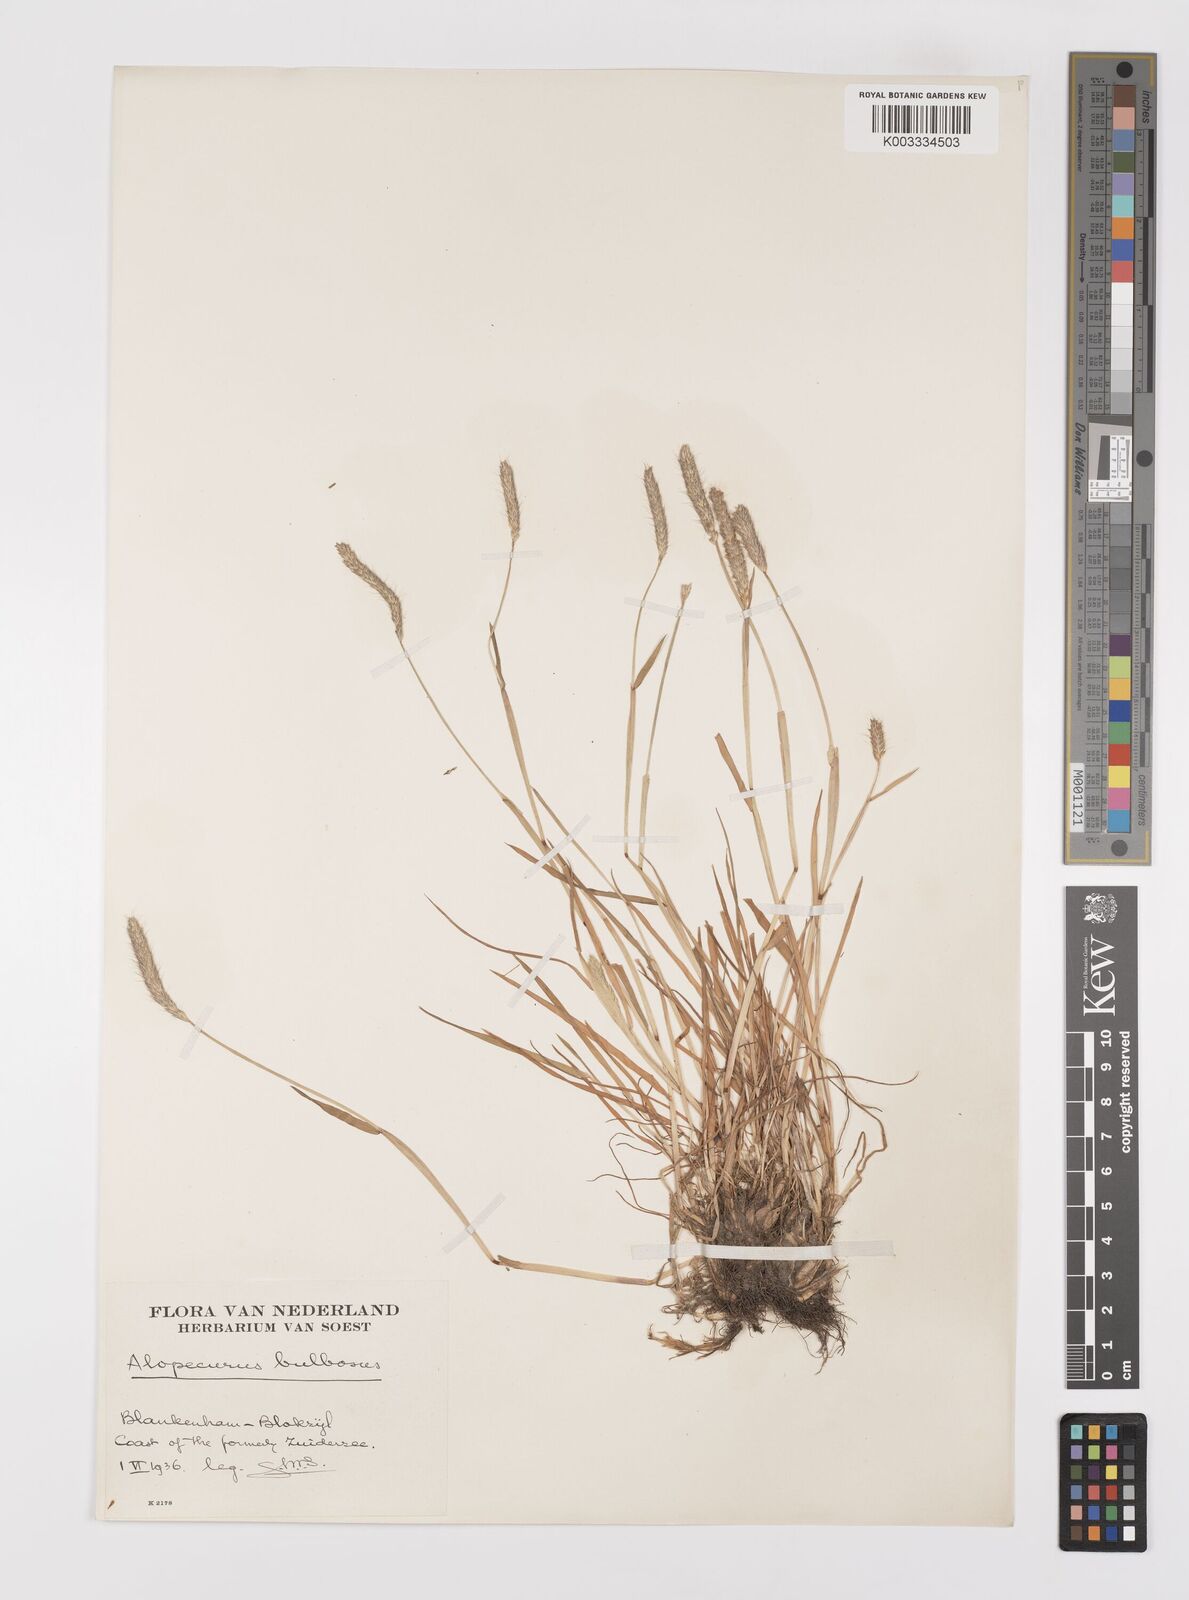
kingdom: Plantae
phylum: Tracheophyta
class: Liliopsida
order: Poales
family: Poaceae
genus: Alopecurus
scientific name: Alopecurus bulbosus
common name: Bulbous foxtail
